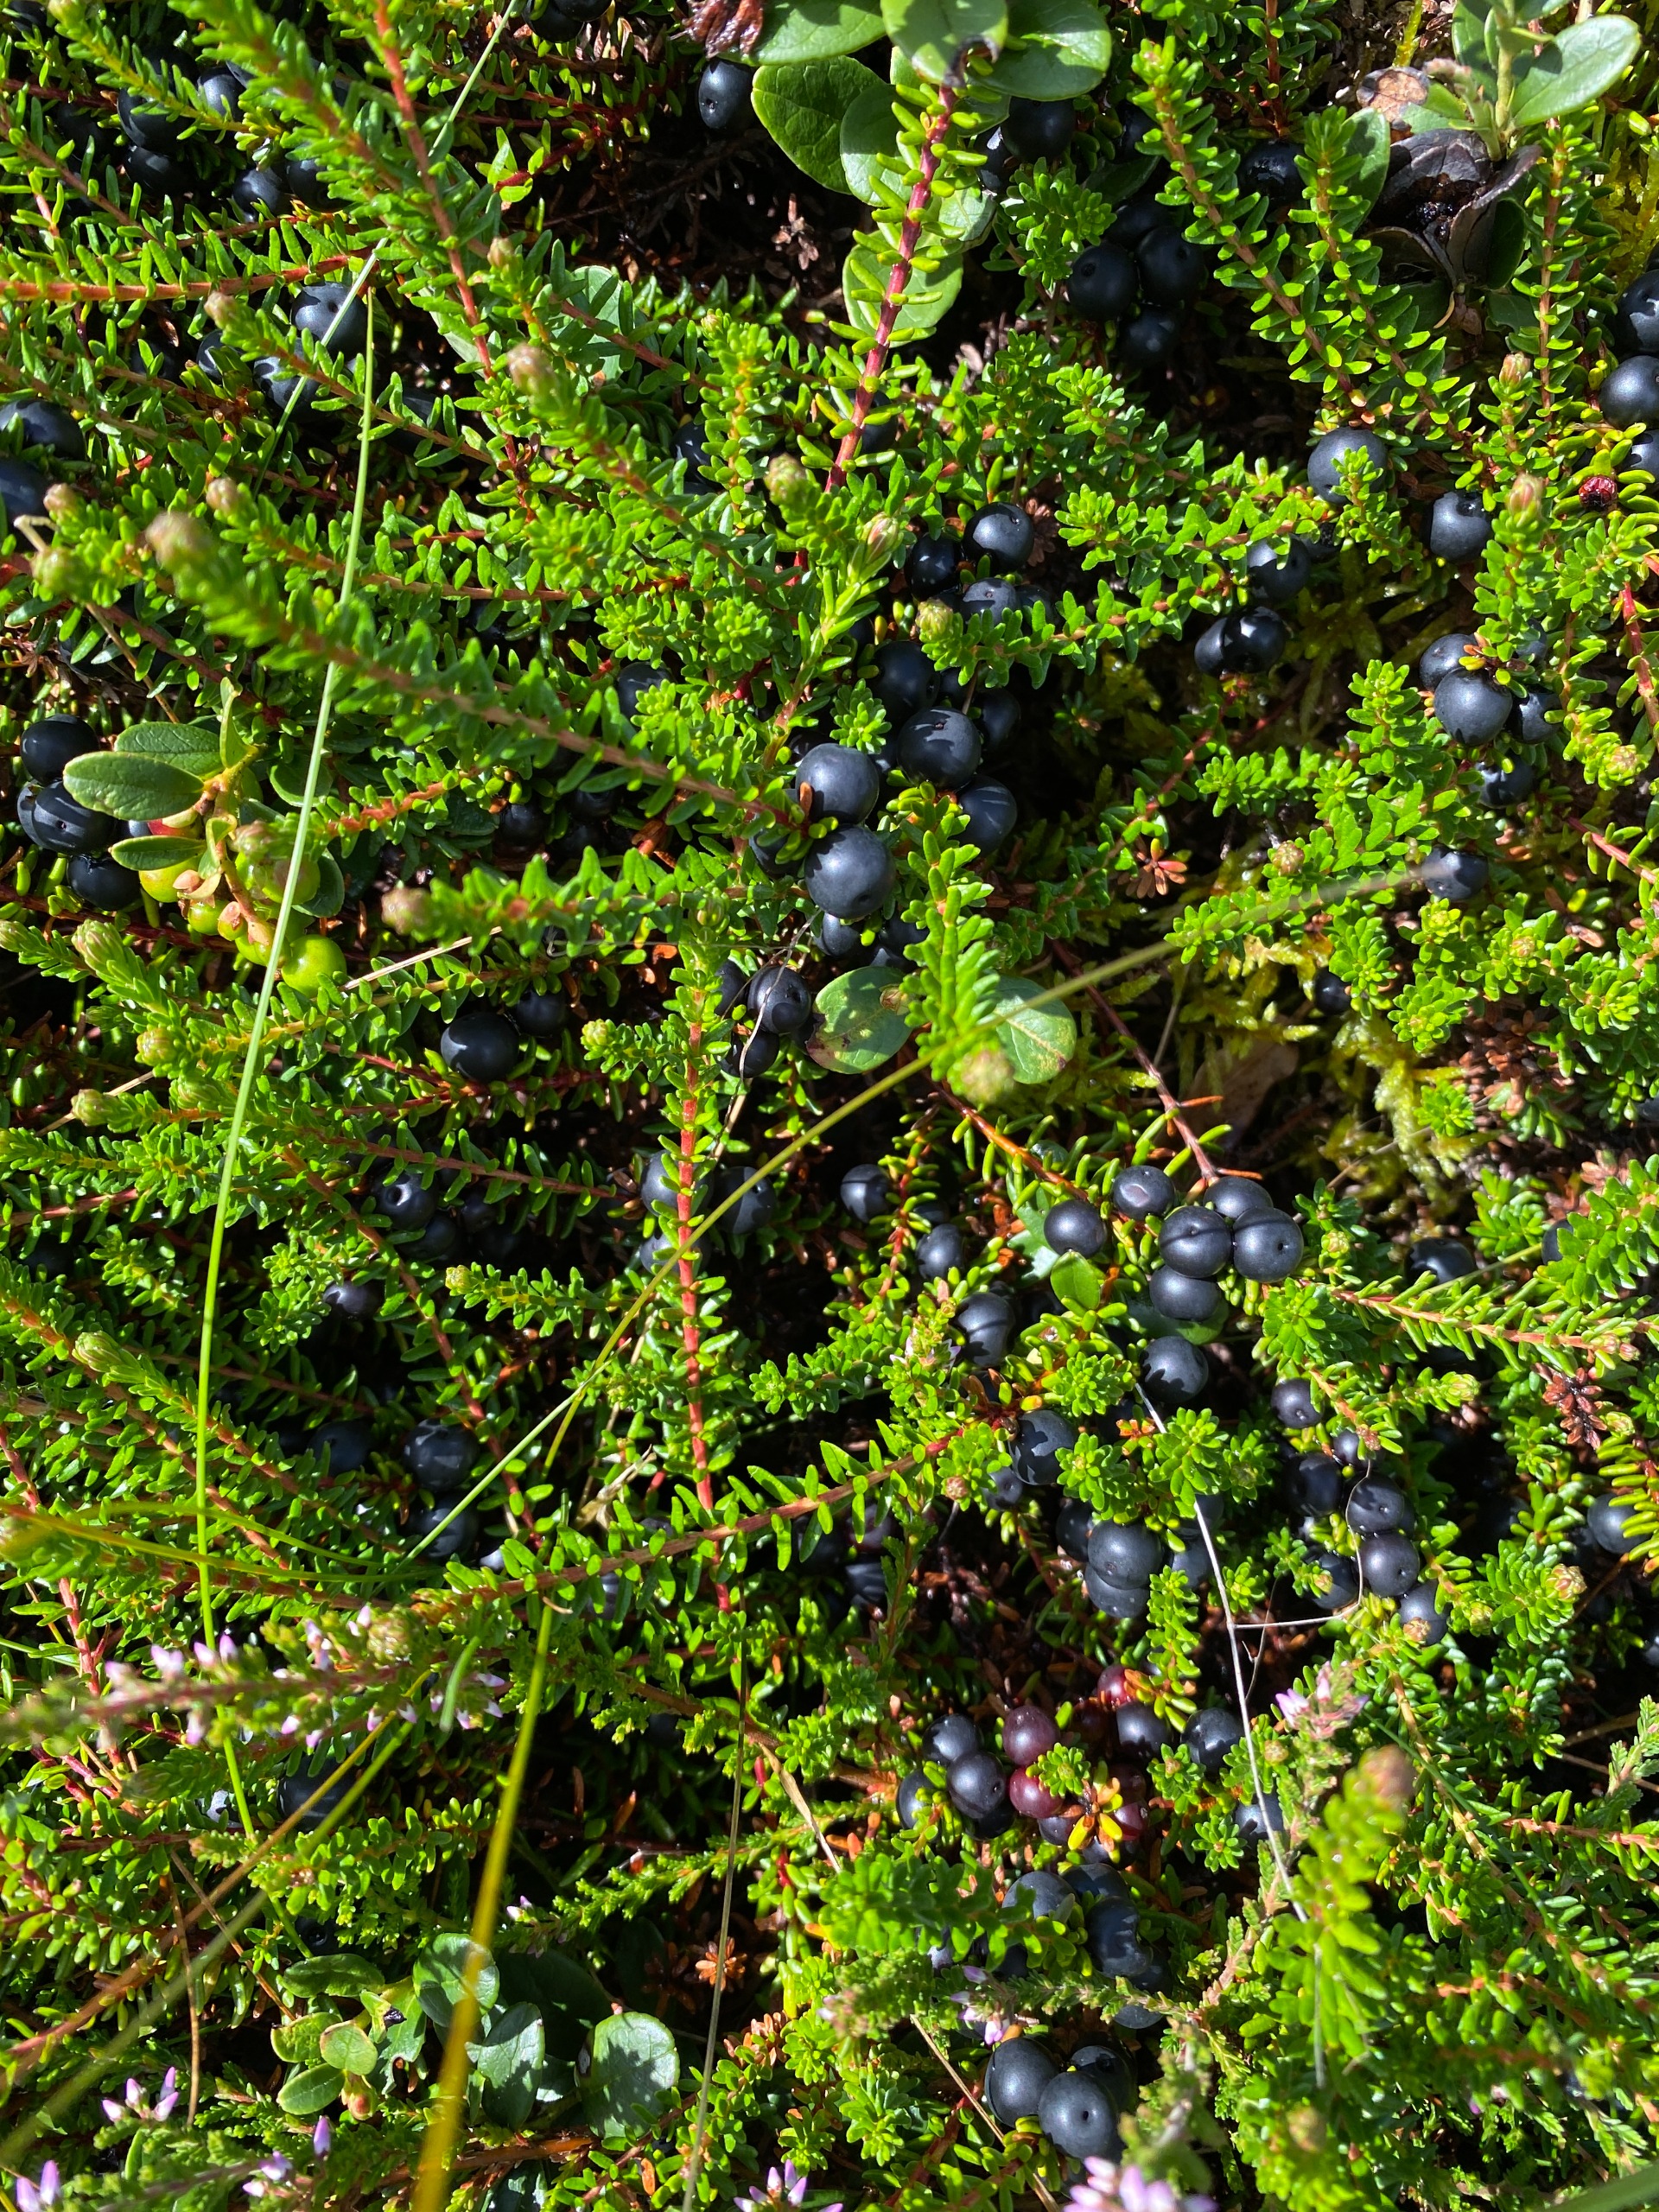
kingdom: Plantae
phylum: Tracheophyta
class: Magnoliopsida
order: Ericales
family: Ericaceae
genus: Empetrum
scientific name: Empetrum nigrum
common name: Revling
